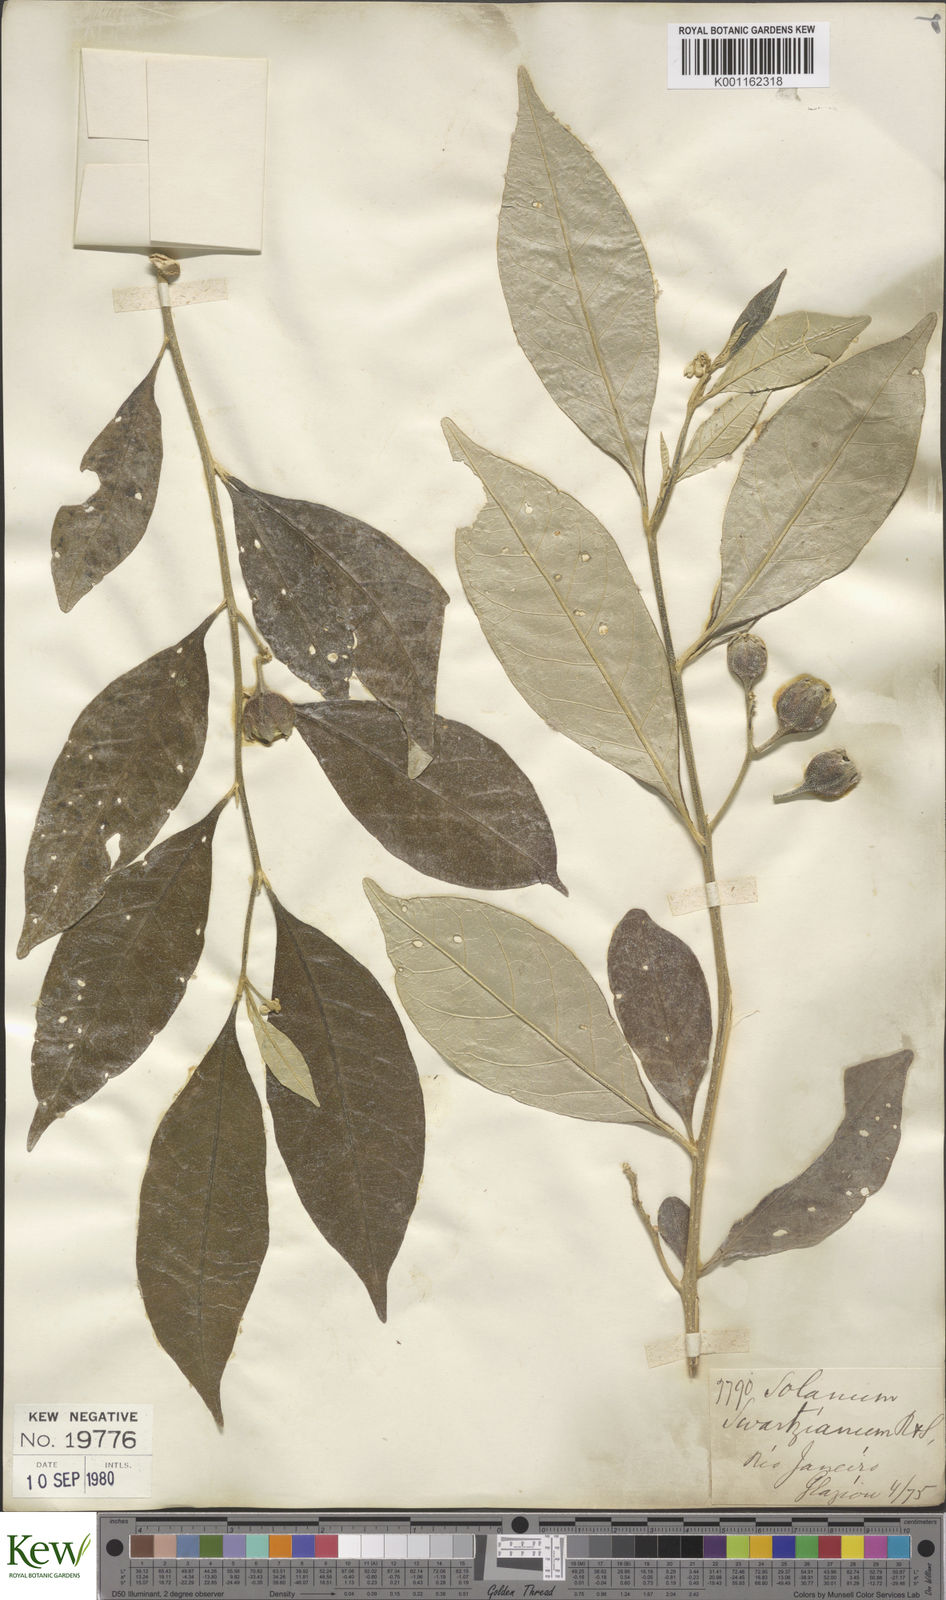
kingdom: Plantae
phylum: Tracheophyta
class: Magnoliopsida
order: Solanales
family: Solanaceae
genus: Solanum
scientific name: Solanum swartzianum
